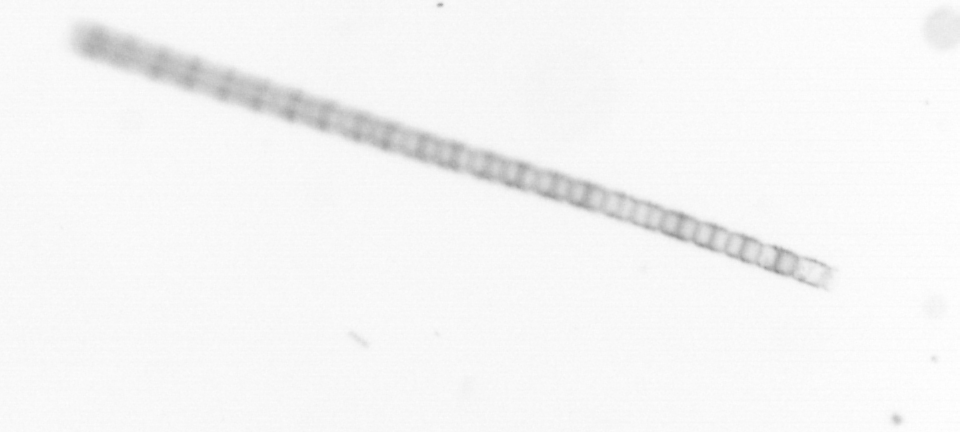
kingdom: Chromista
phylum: Ochrophyta
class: Bacillariophyceae
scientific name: Bacillariophyceae
